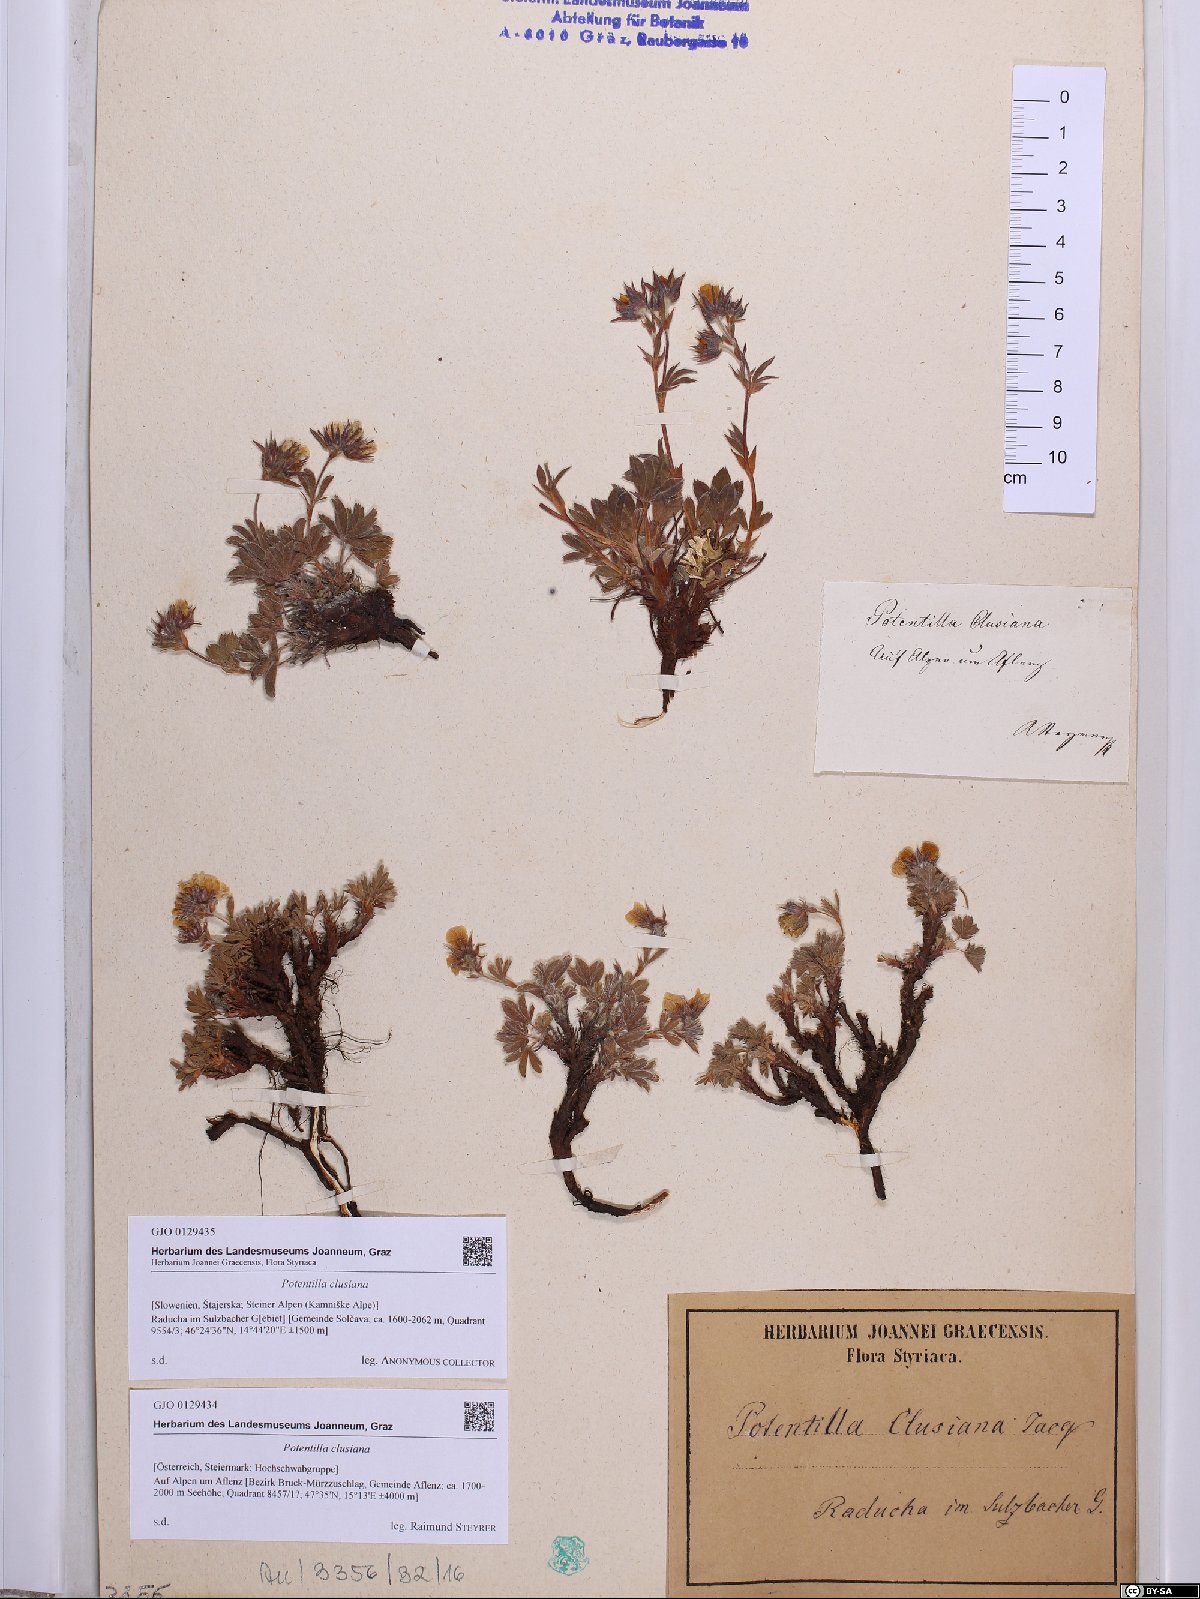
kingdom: Plantae
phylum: Tracheophyta
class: Magnoliopsida
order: Rosales
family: Rosaceae
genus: Potentilla
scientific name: Potentilla clusiana
